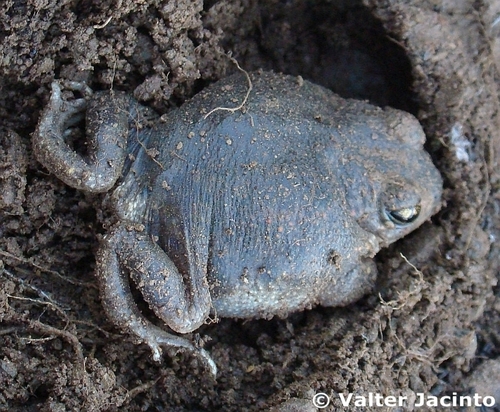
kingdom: Animalia
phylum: Chordata
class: Amphibia
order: Anura
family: Alytidae
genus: Alytes
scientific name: Alytes cisternasii
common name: Iberian midwife toad
